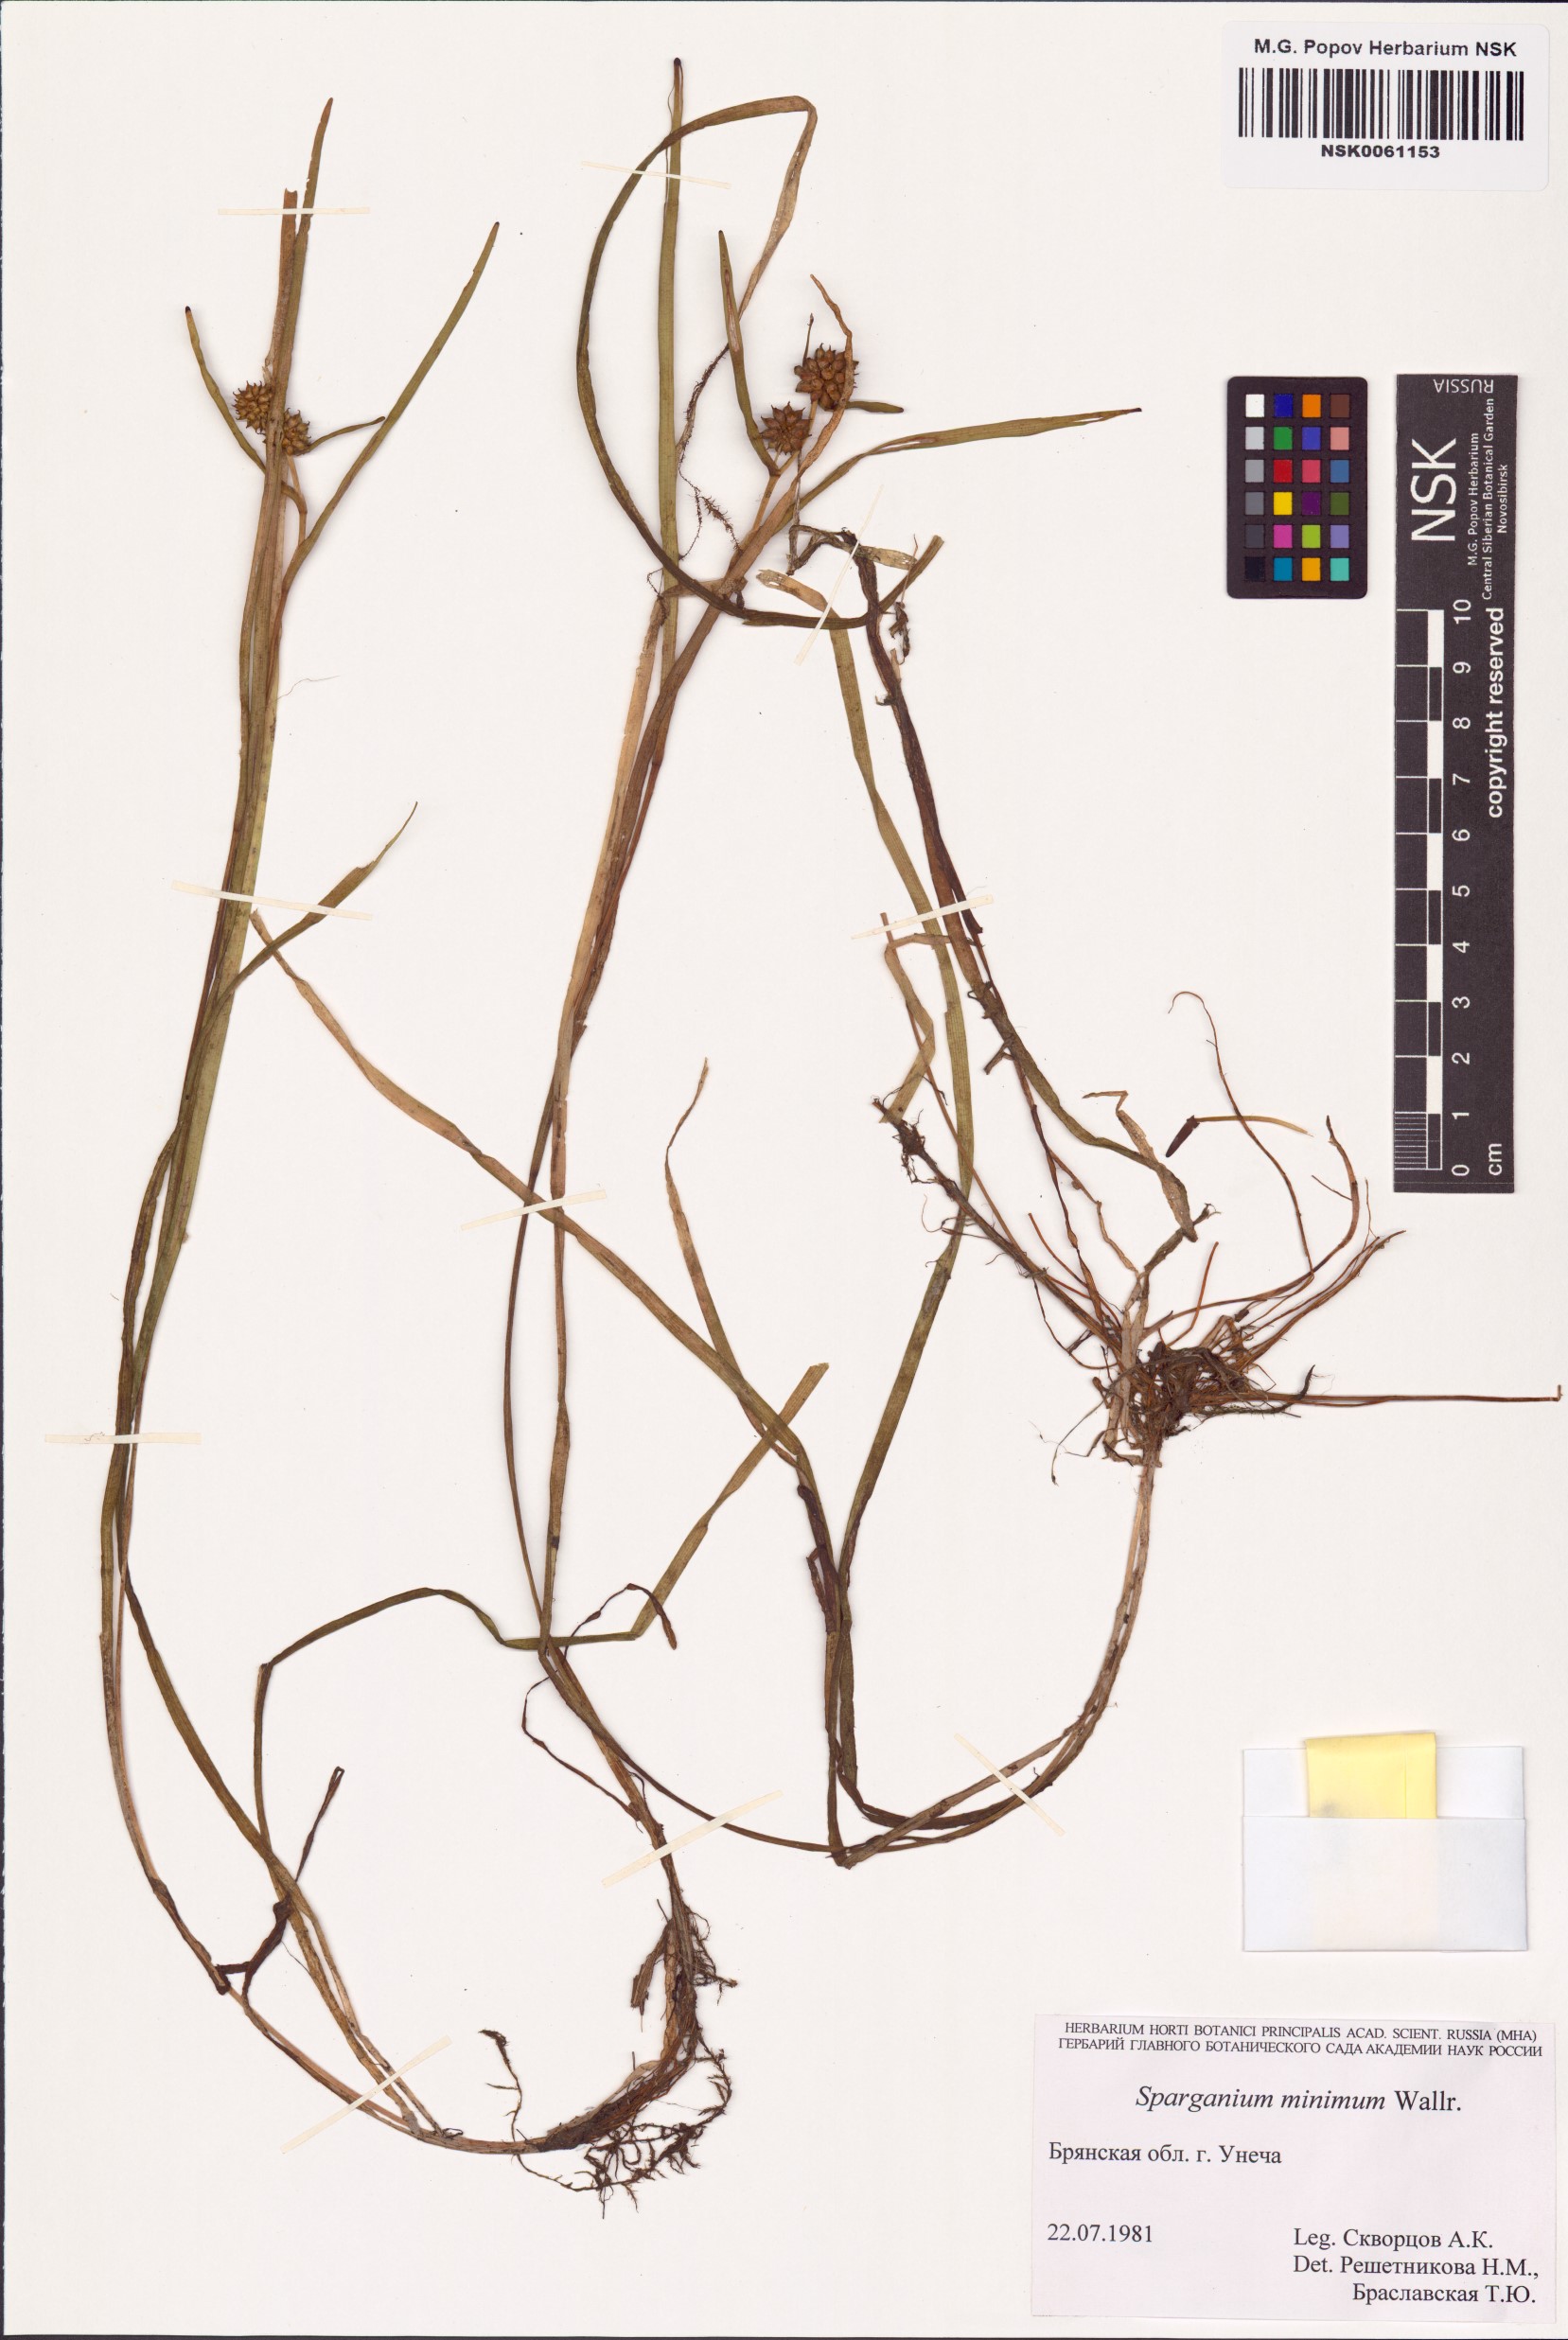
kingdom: Plantae
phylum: Tracheophyta
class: Liliopsida
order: Poales
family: Typhaceae
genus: Sparganium
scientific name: Sparganium natans
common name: Least bur-reed
